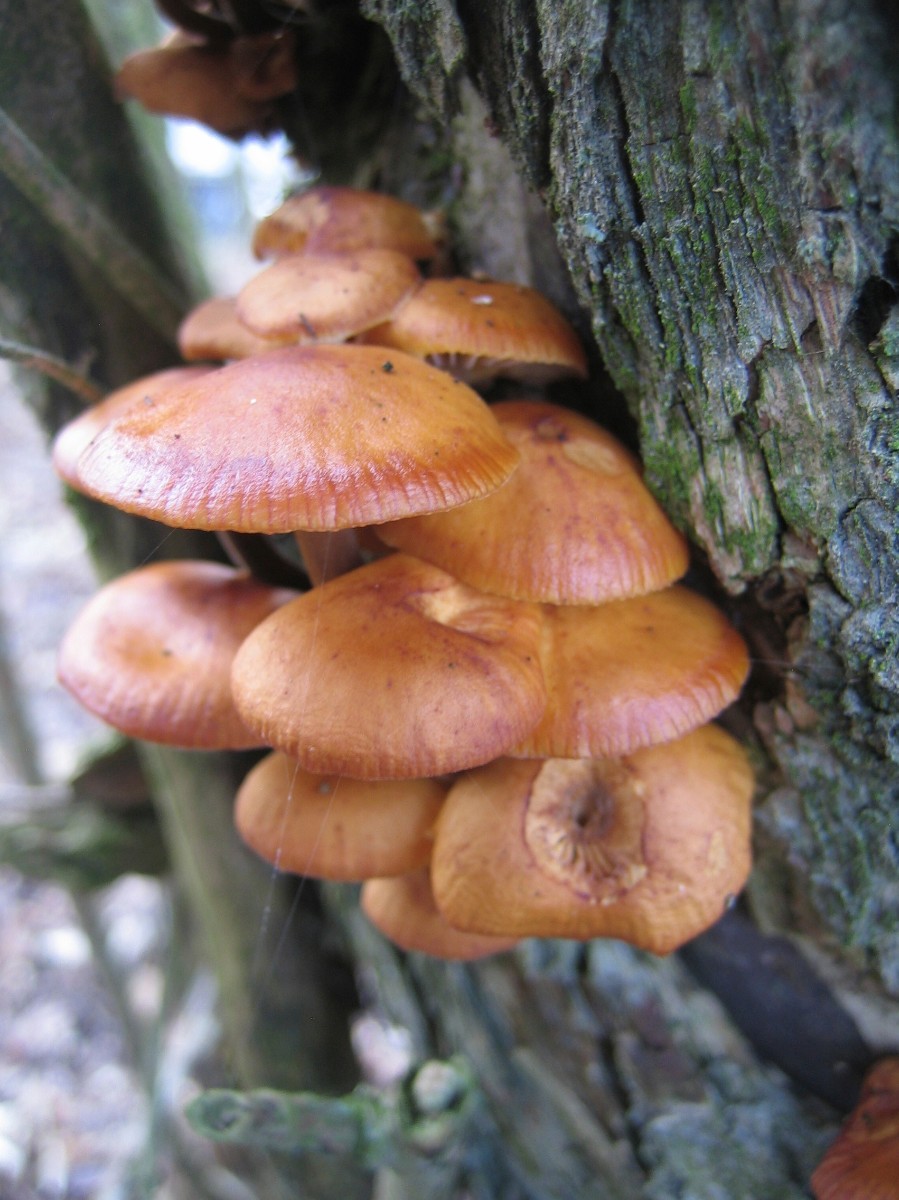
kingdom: Fungi
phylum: Basidiomycota
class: Agaricomycetes
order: Agaricales
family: Physalacriaceae
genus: Flammulina
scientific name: Flammulina velutipes
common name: gul fløjlsfod
